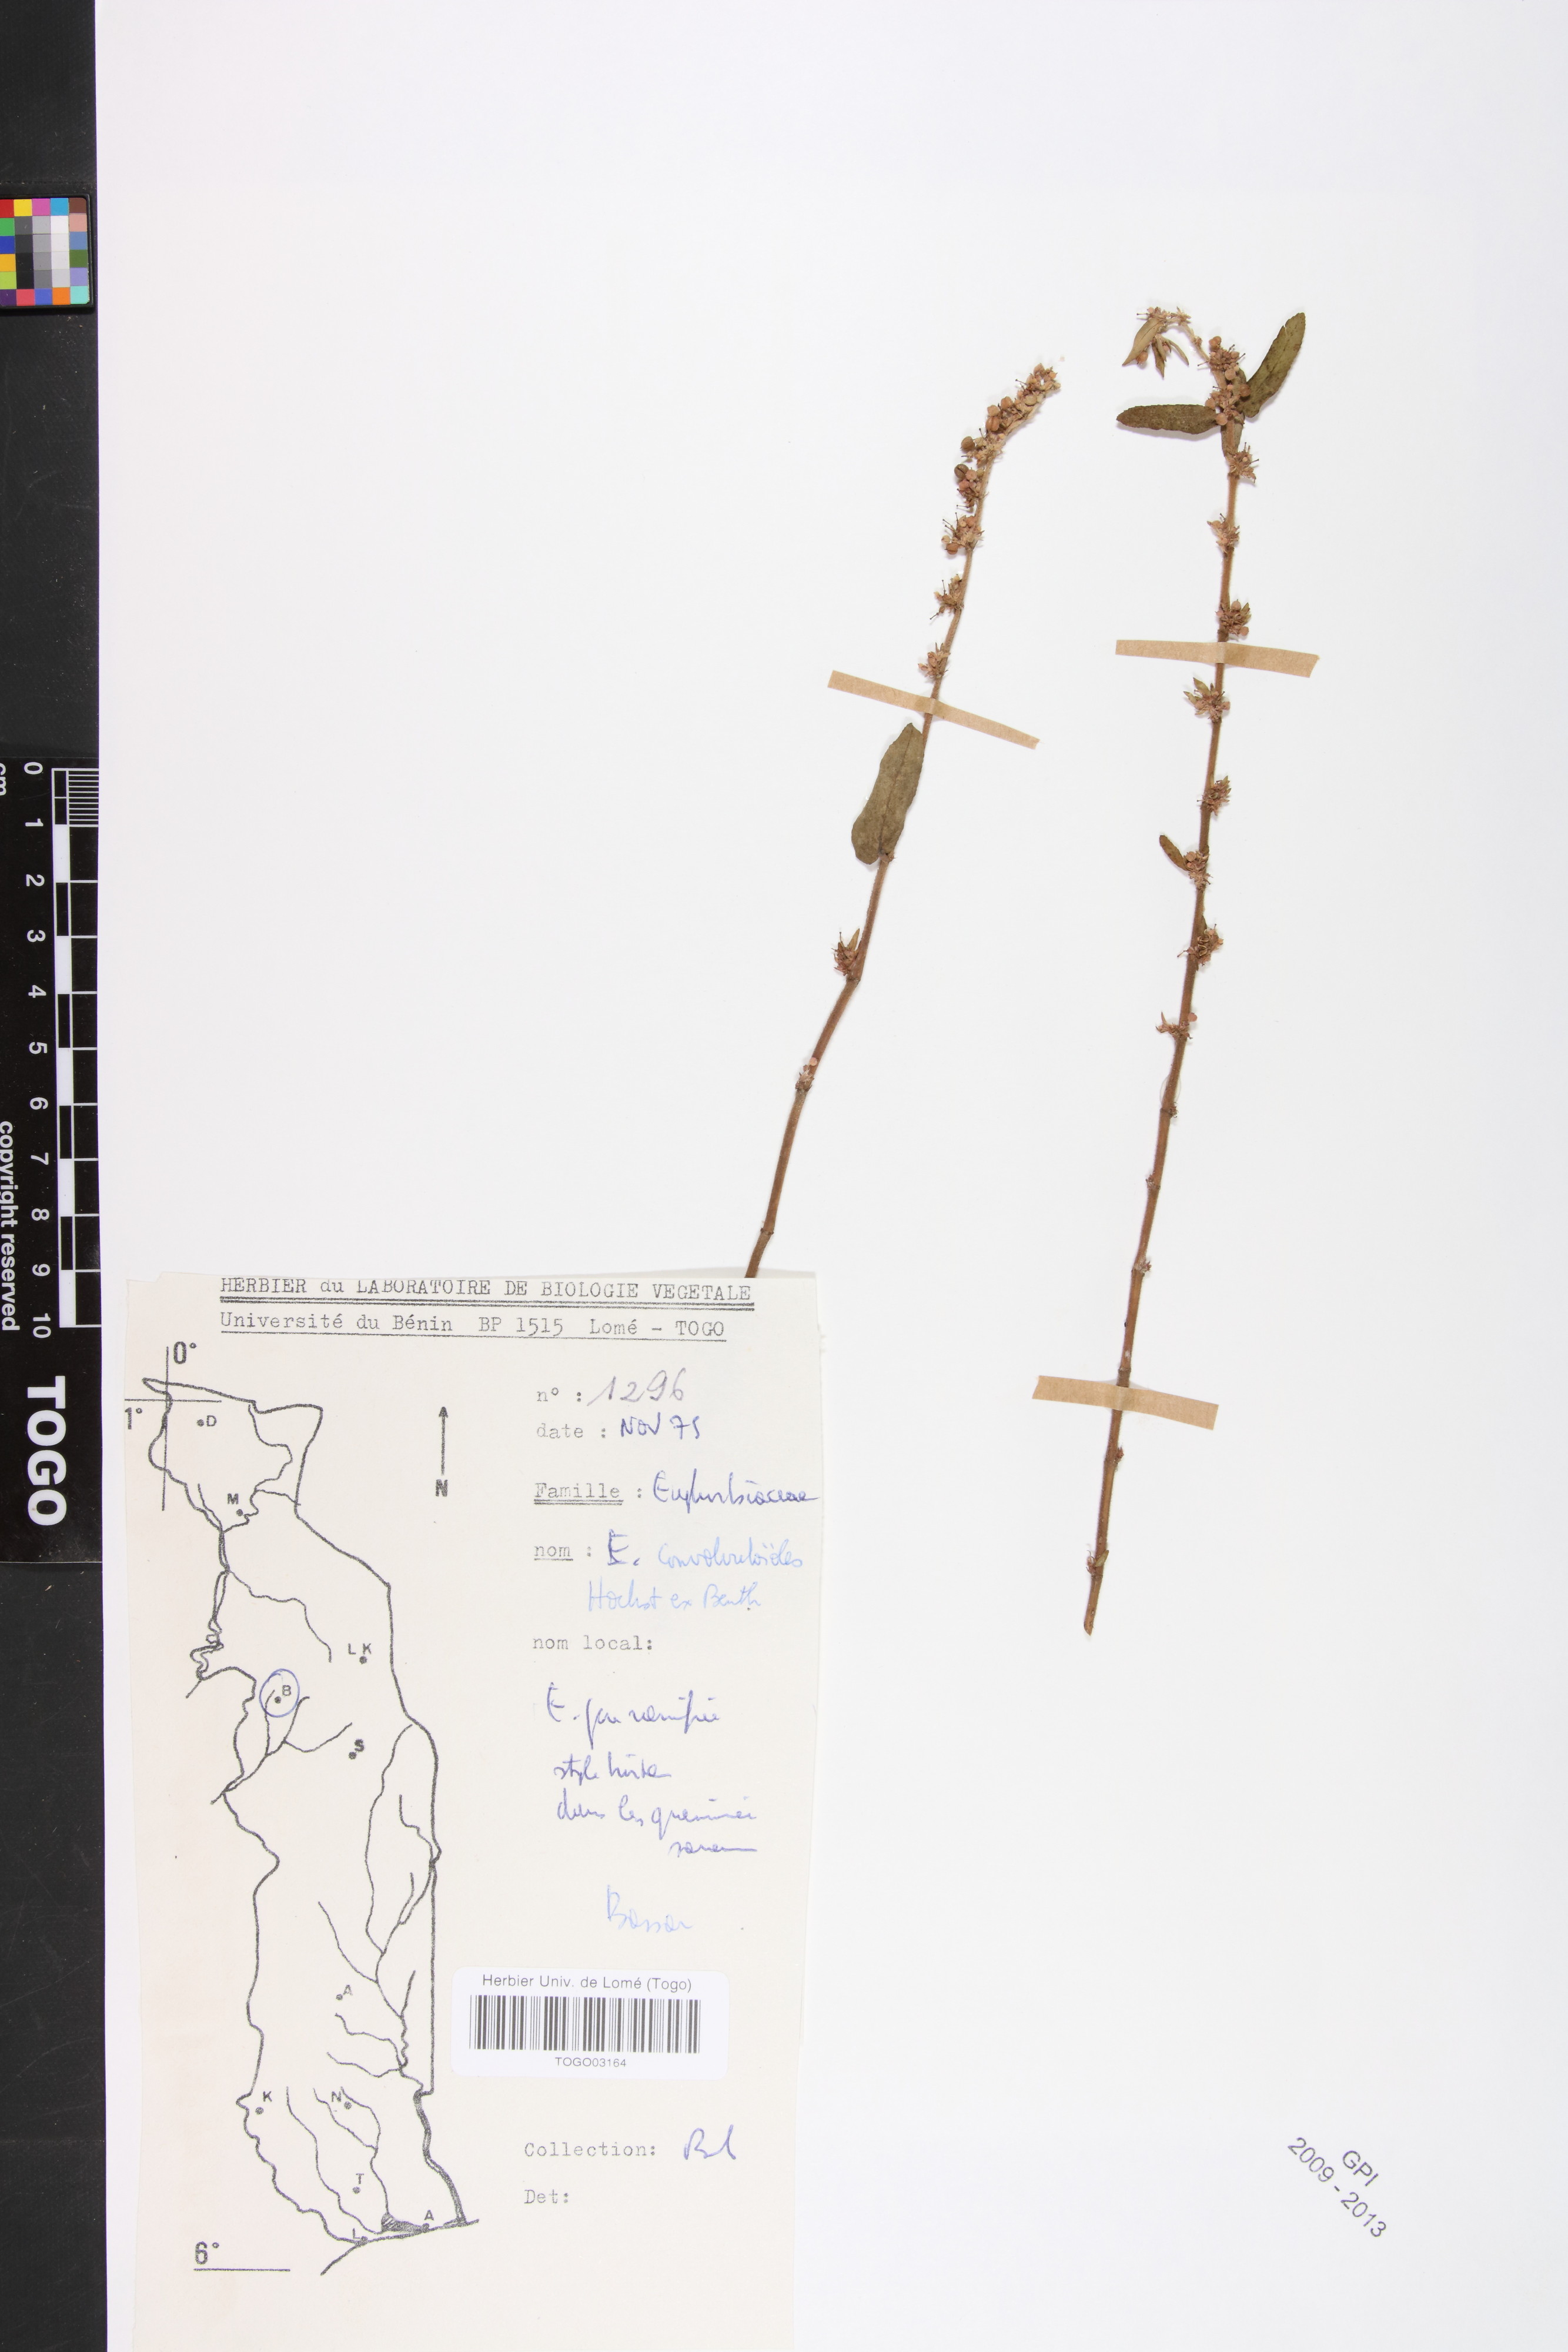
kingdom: Plantae
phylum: Tracheophyta
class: Magnoliopsida
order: Malpighiales
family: Euphorbiaceae
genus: Euphorbia
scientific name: Euphorbia convolvuloides
